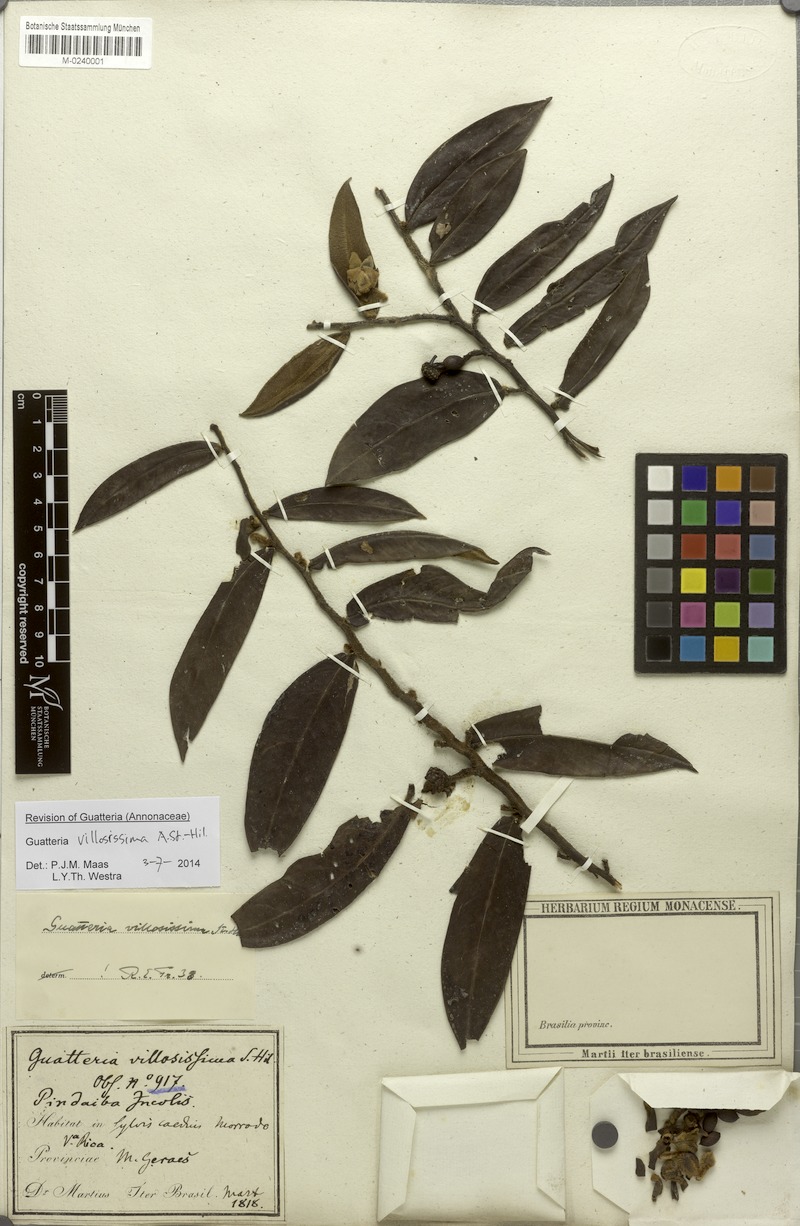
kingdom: Plantae
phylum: Tracheophyta
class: Magnoliopsida
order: Magnoliales
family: Annonaceae
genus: Guatteria
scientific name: Guatteria villosissima
